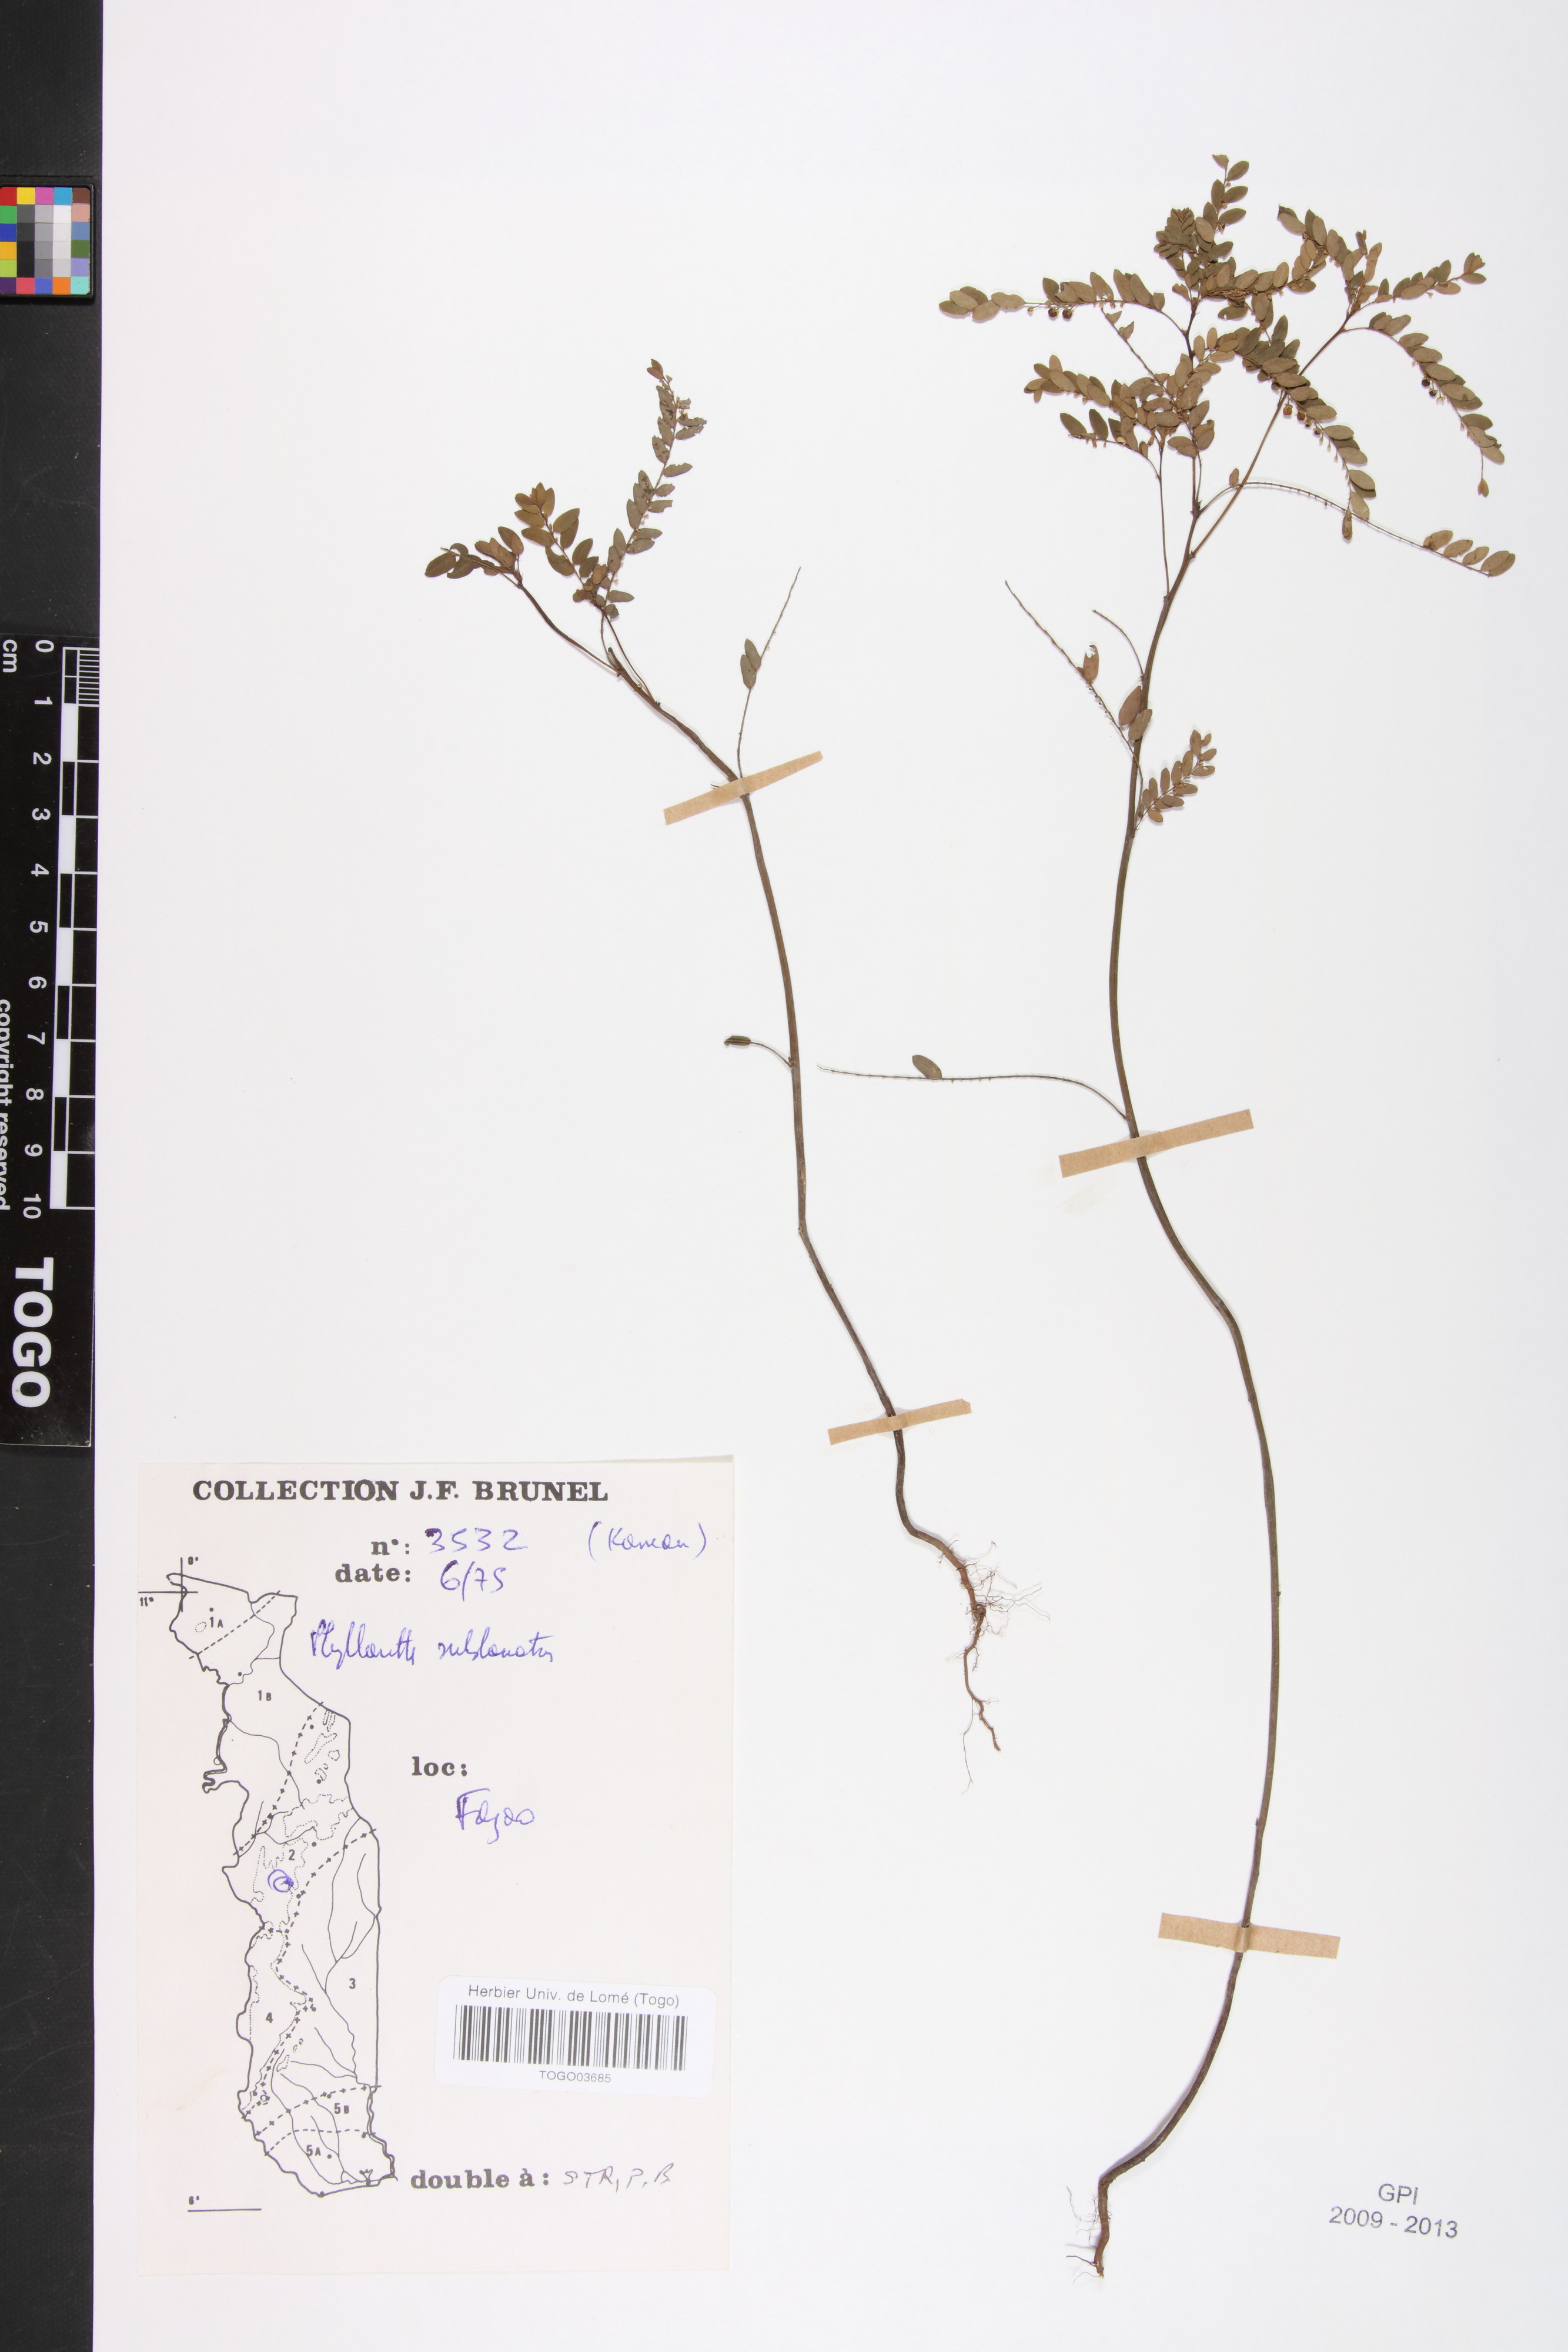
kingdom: Plantae
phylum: Tracheophyta
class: Magnoliopsida
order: Malpighiales
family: Phyllanthaceae
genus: Phyllanthus
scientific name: Phyllanthus sublanatus
